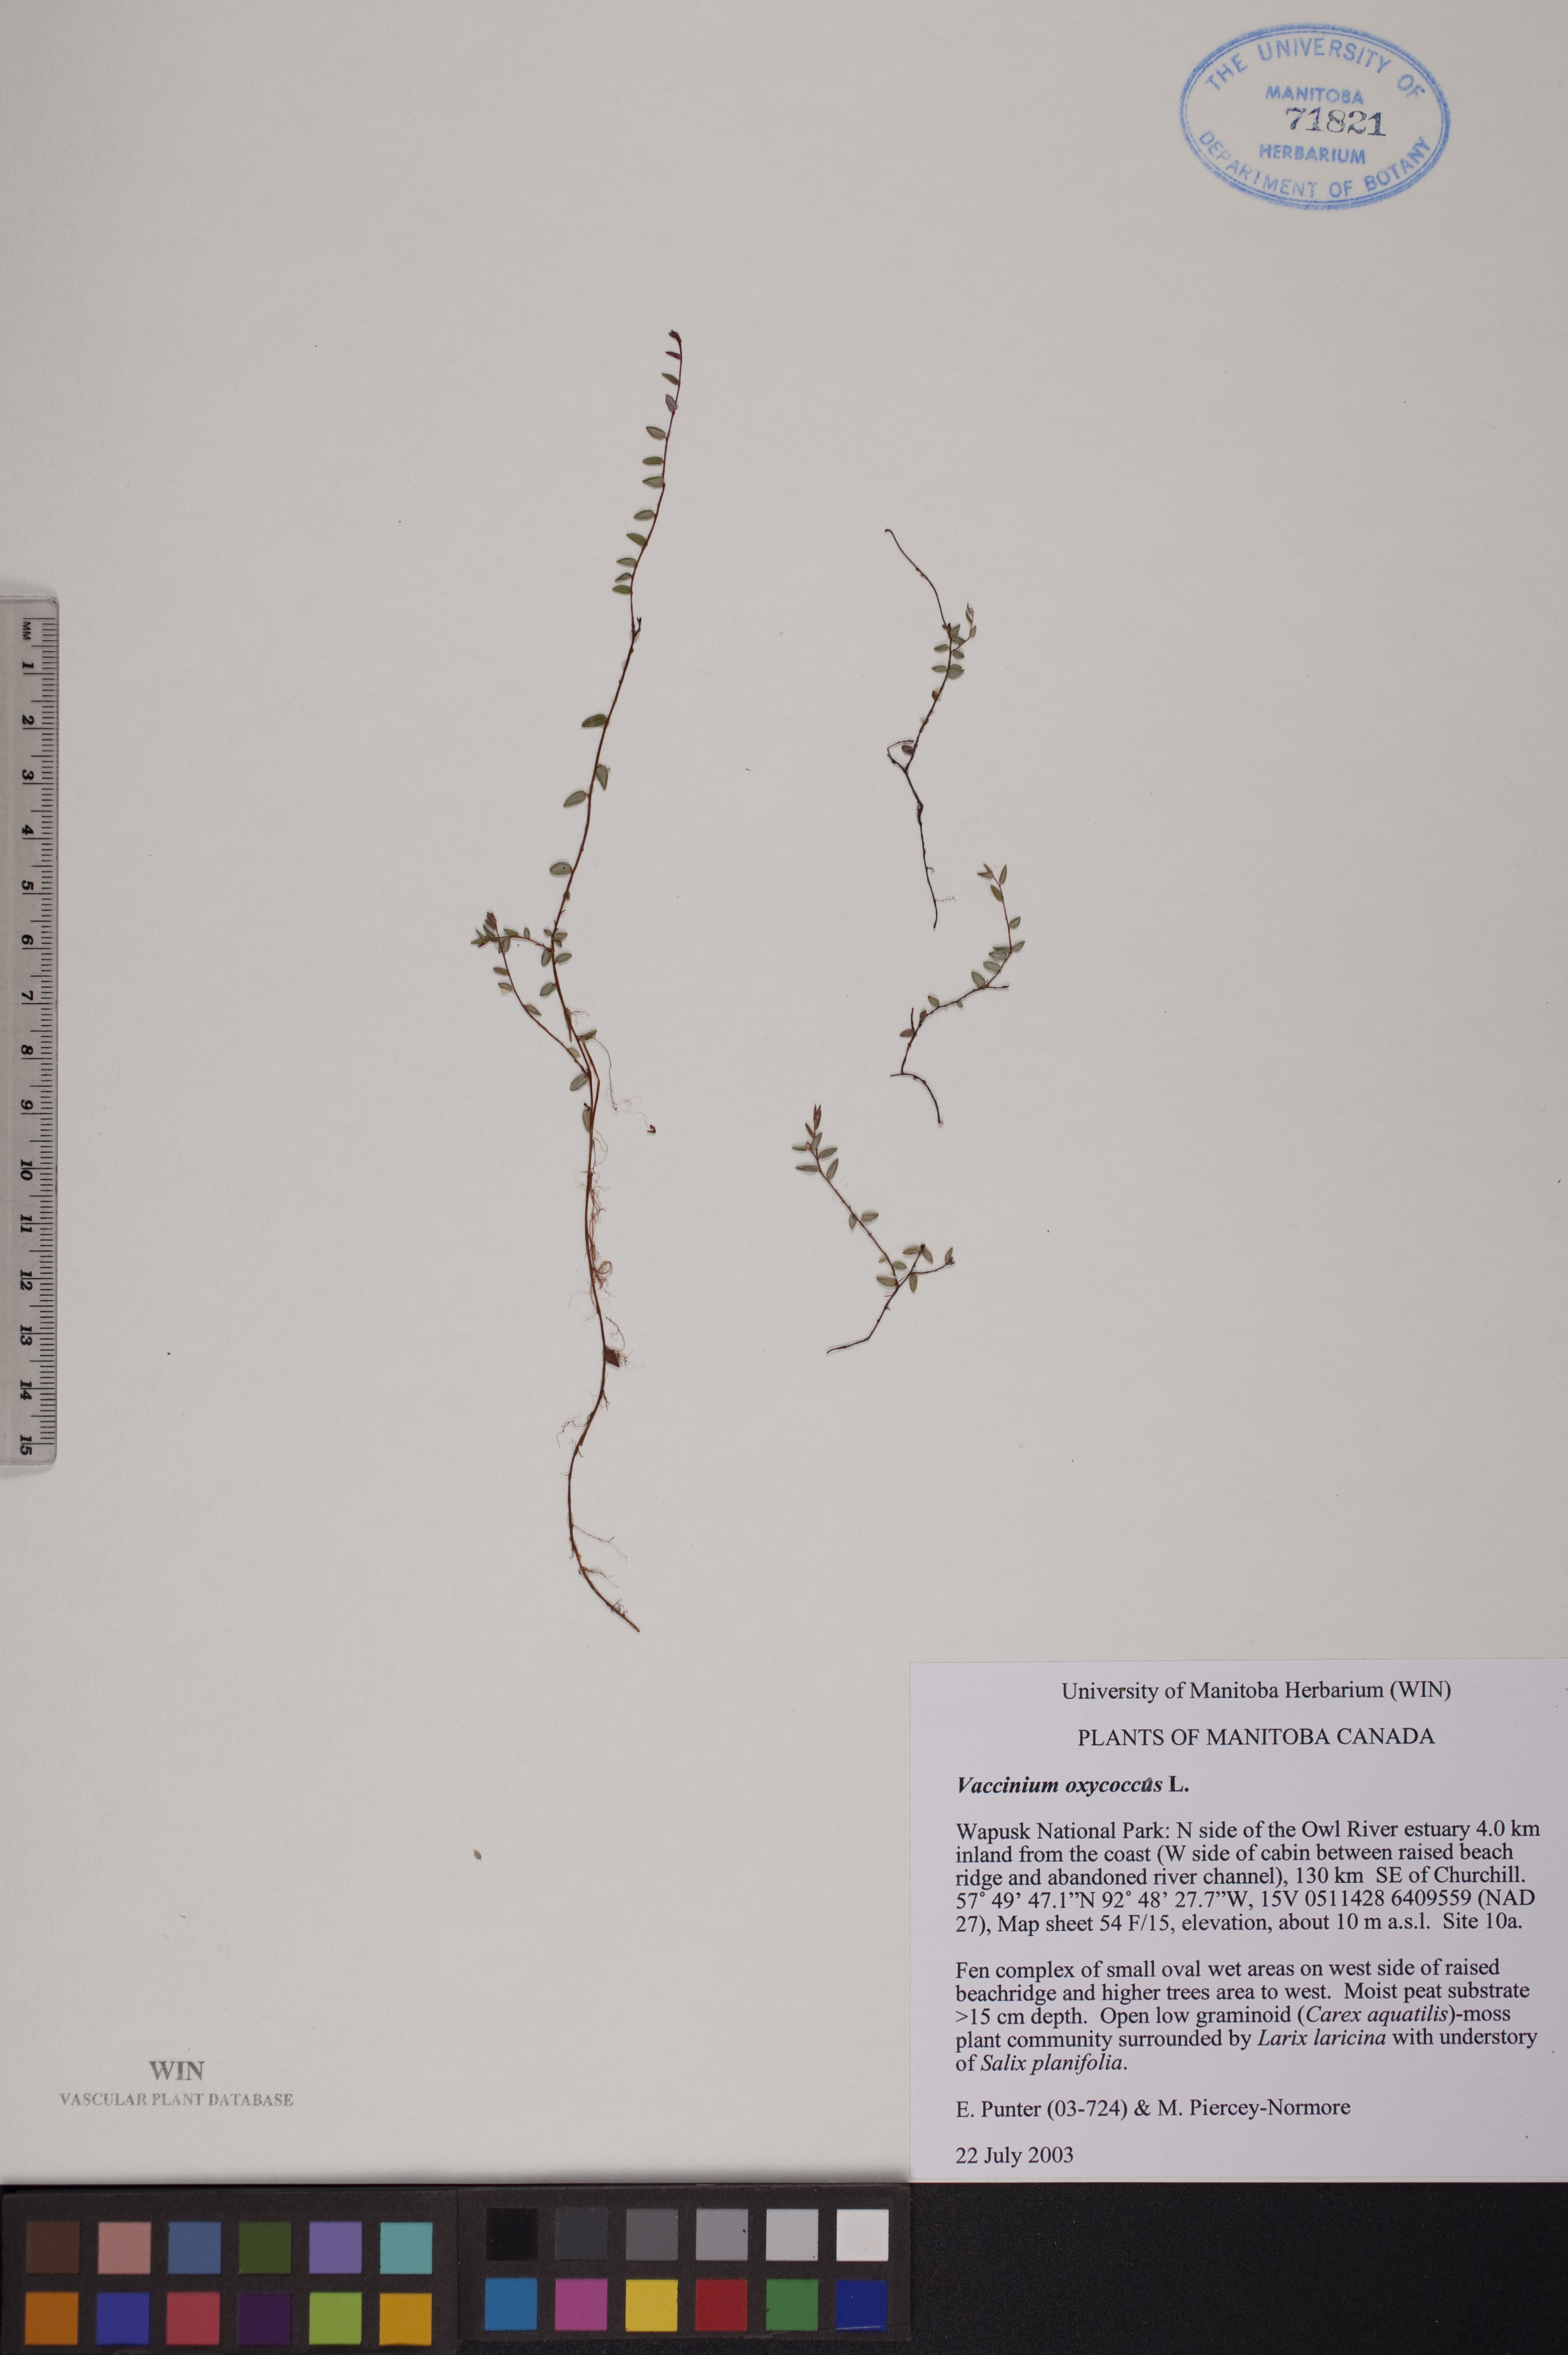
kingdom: Plantae
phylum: Tracheophyta
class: Magnoliopsida
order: Ericales
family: Ericaceae
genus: Vaccinium
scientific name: Vaccinium oxycoccos
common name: Cranberry
